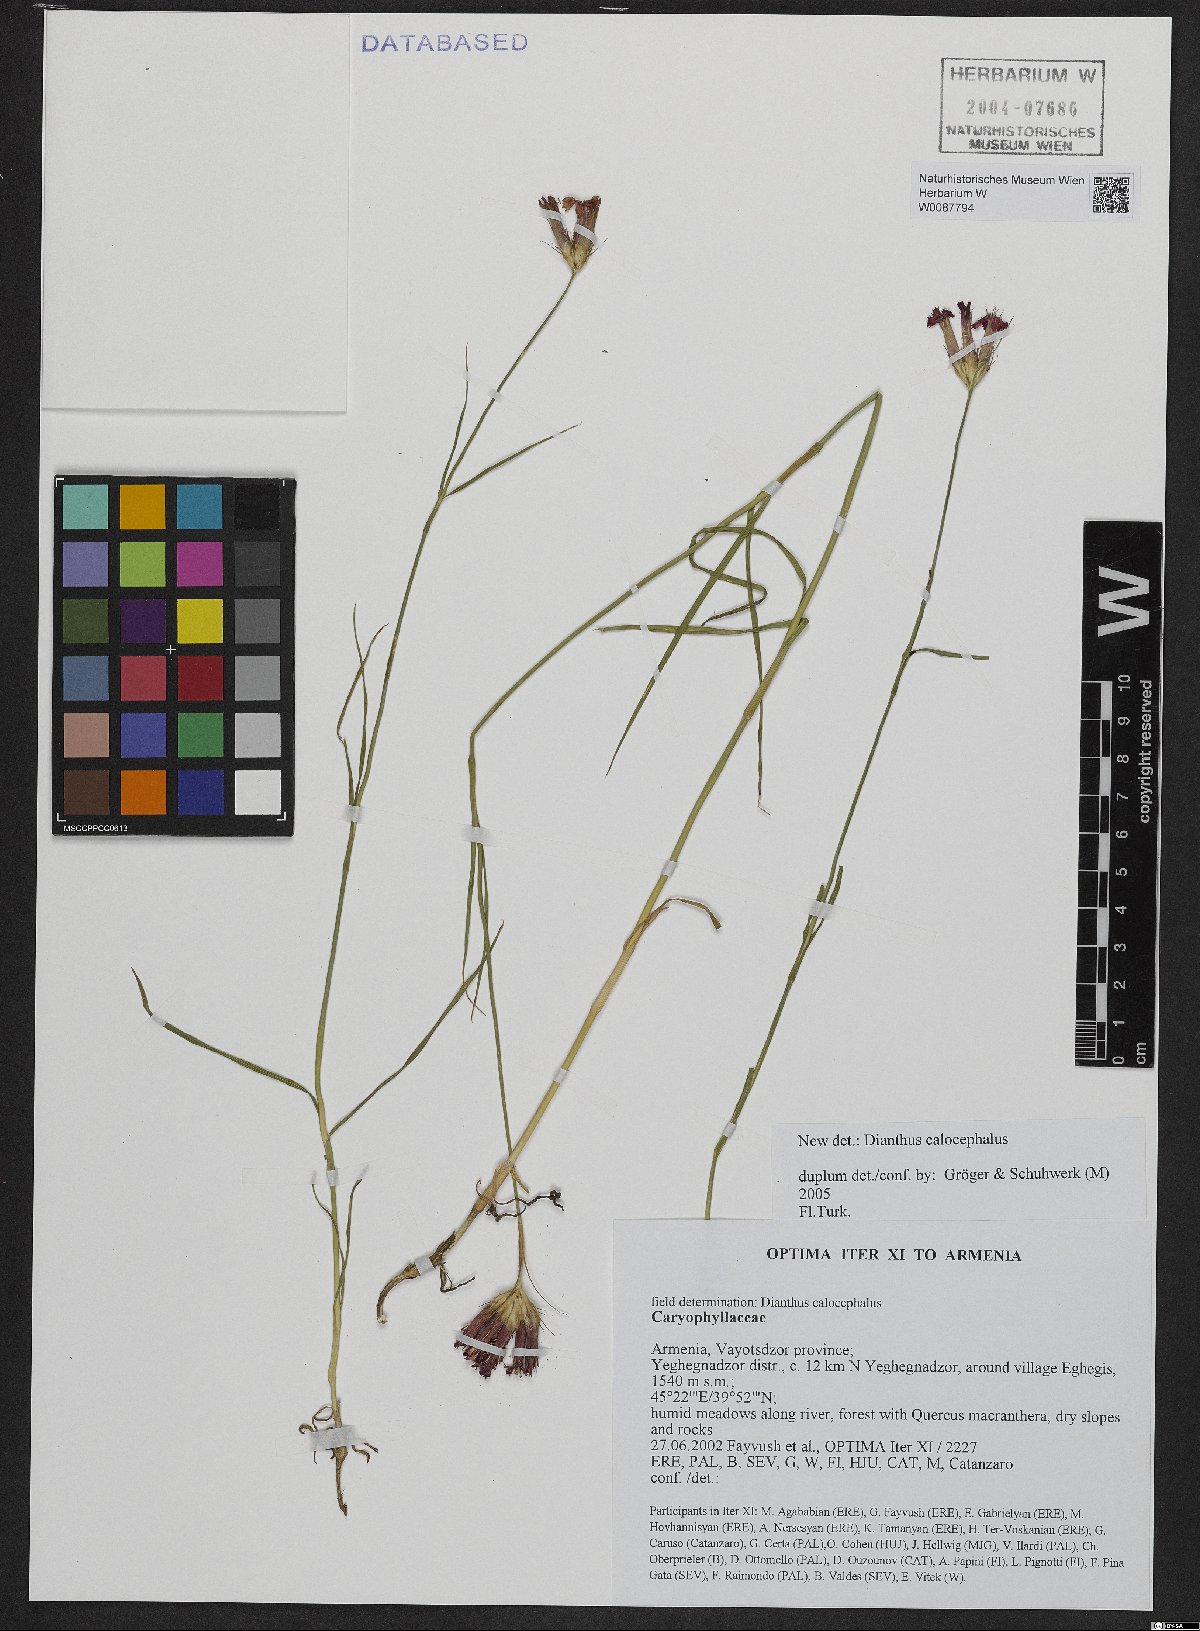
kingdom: Plantae
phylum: Tracheophyta
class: Magnoliopsida
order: Caryophyllales
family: Caryophyllaceae
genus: Dianthus
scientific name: Dianthus cruentus
